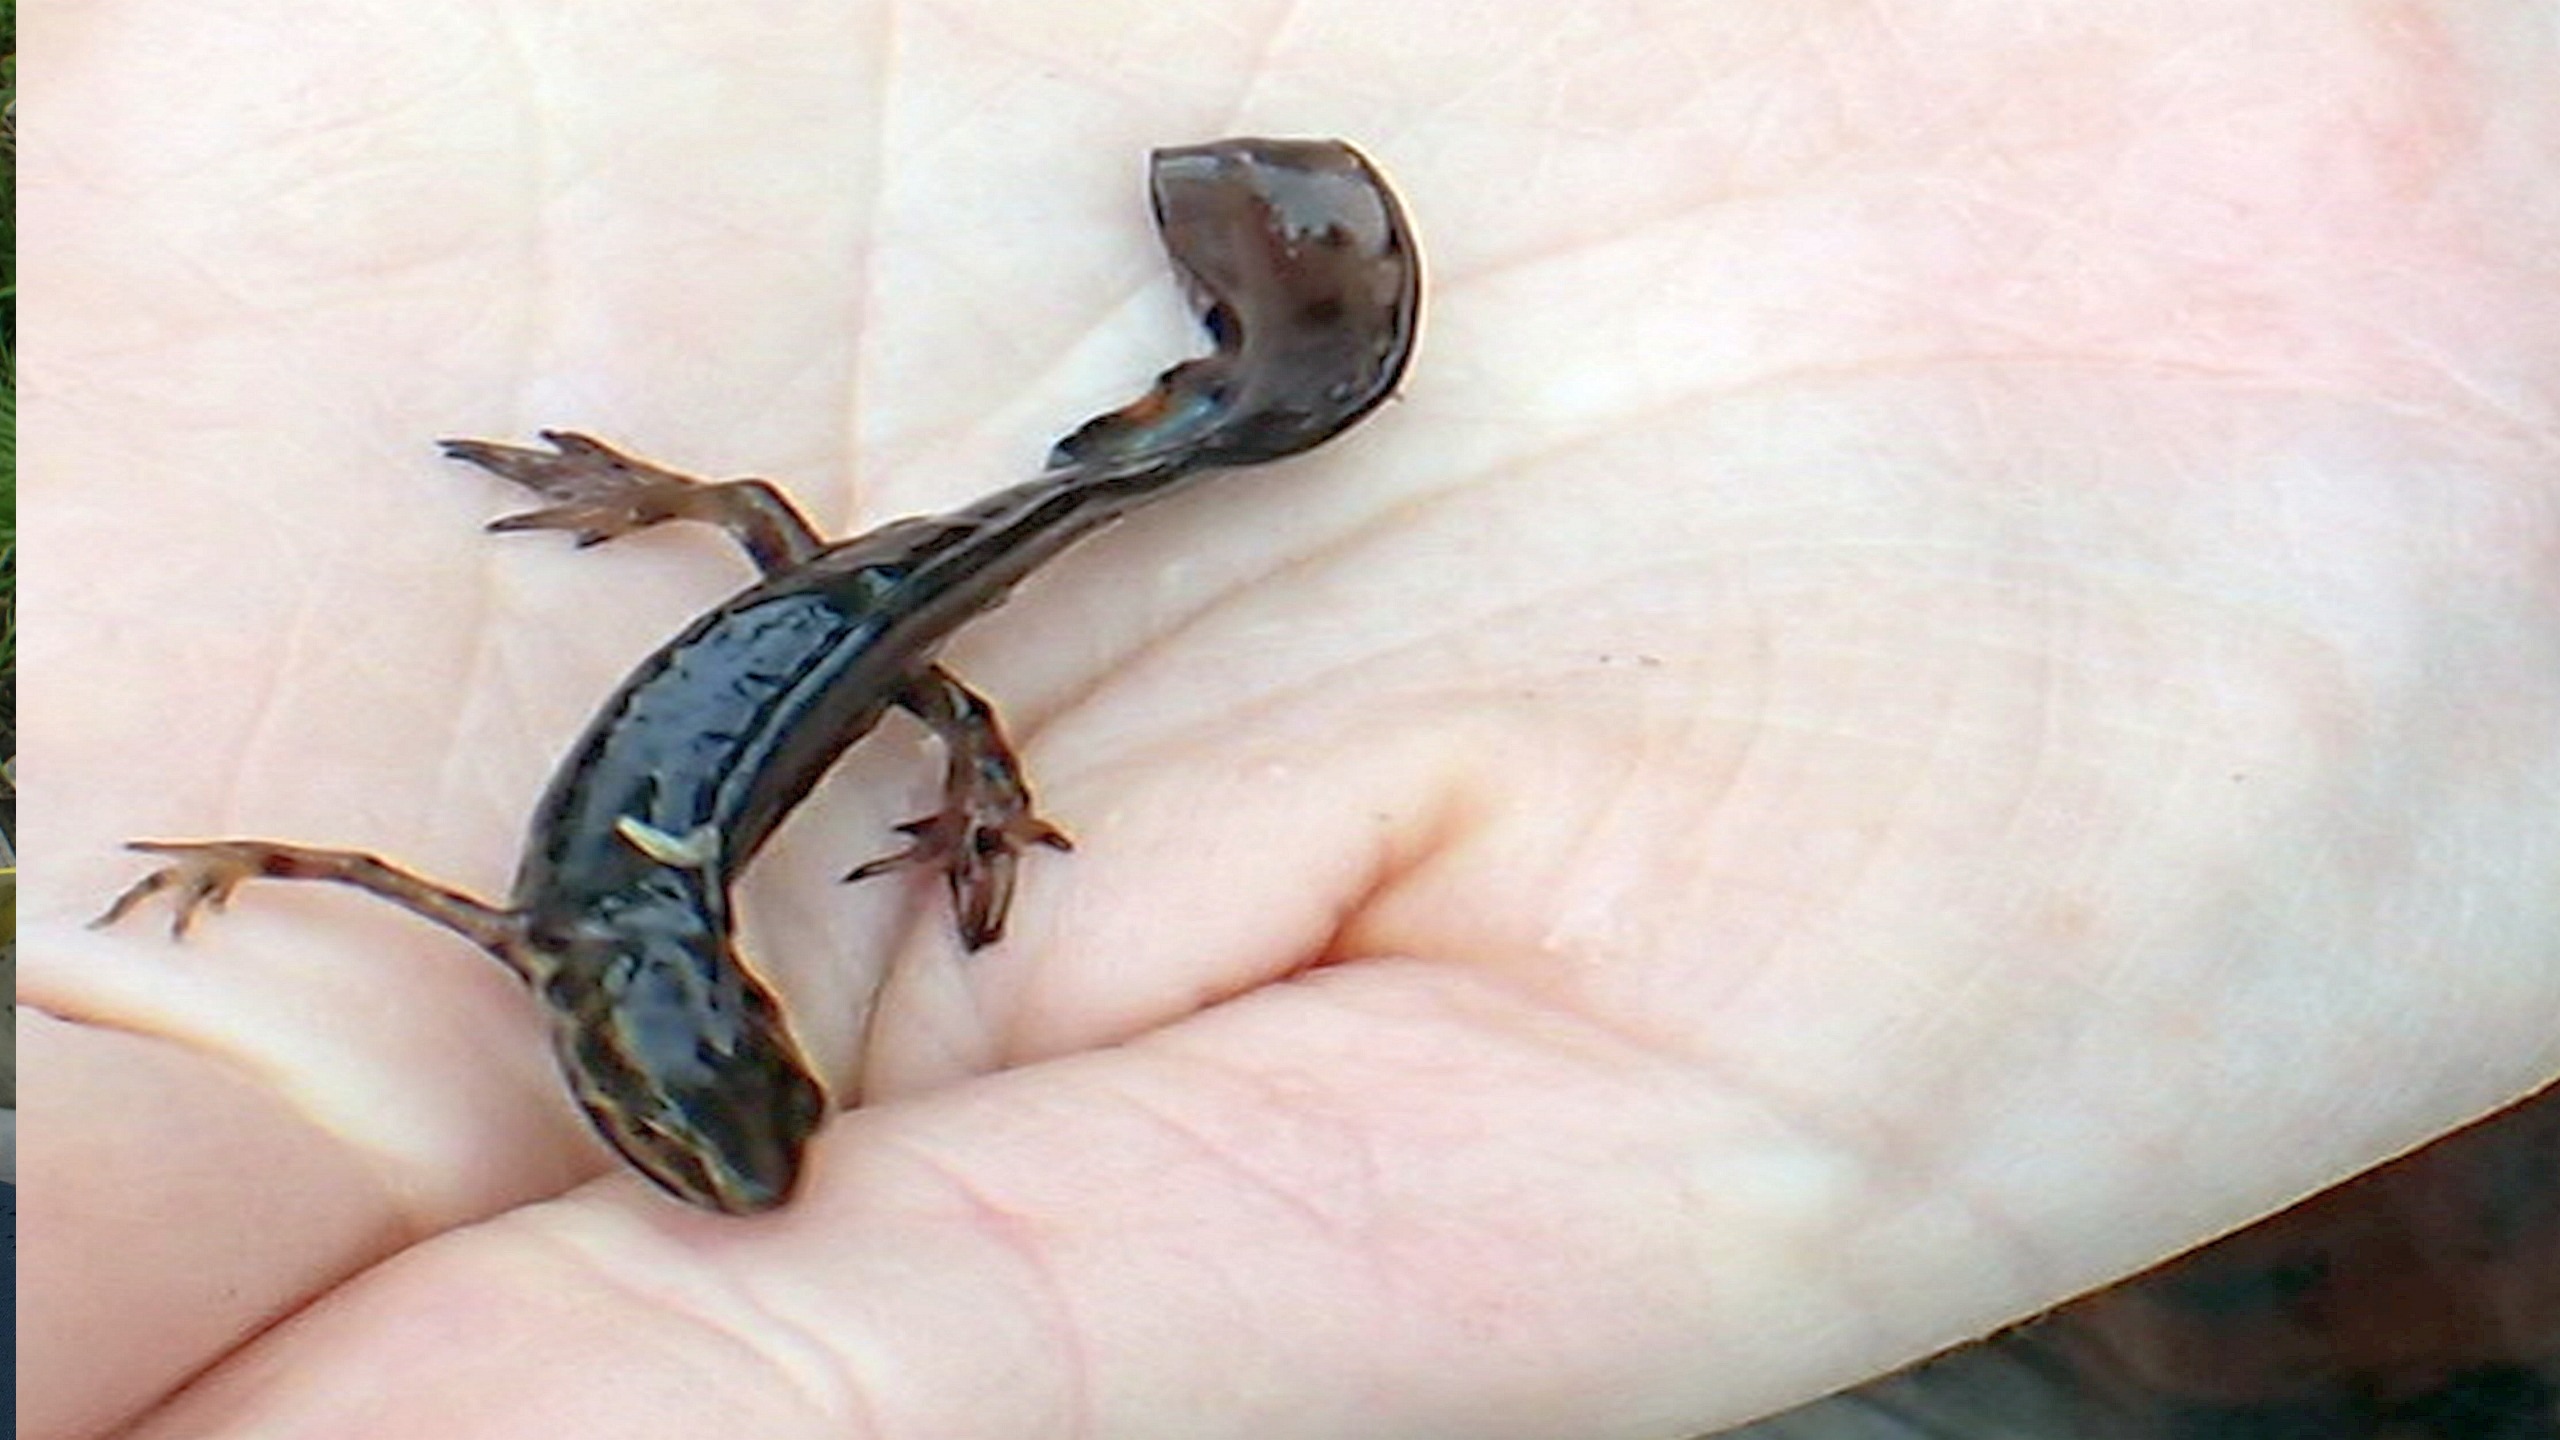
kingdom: Animalia
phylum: Chordata
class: Amphibia
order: Caudata
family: Salamandridae
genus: Lissotriton
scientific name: Lissotriton vulgaris
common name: Lille vandsalamander
